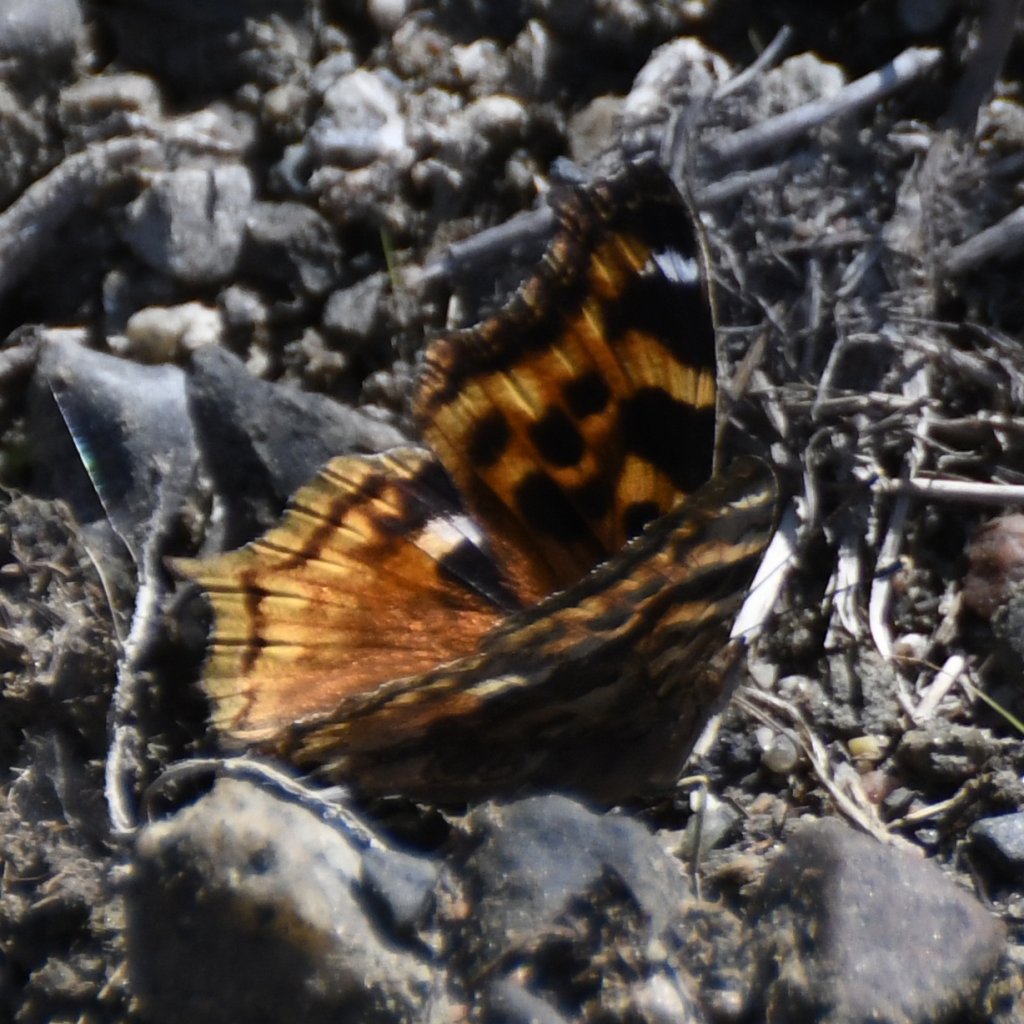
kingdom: Animalia
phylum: Arthropoda
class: Insecta
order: Lepidoptera
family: Nymphalidae
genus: Polygonia
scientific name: Polygonia vaualbum
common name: Compton Tortoiseshell
